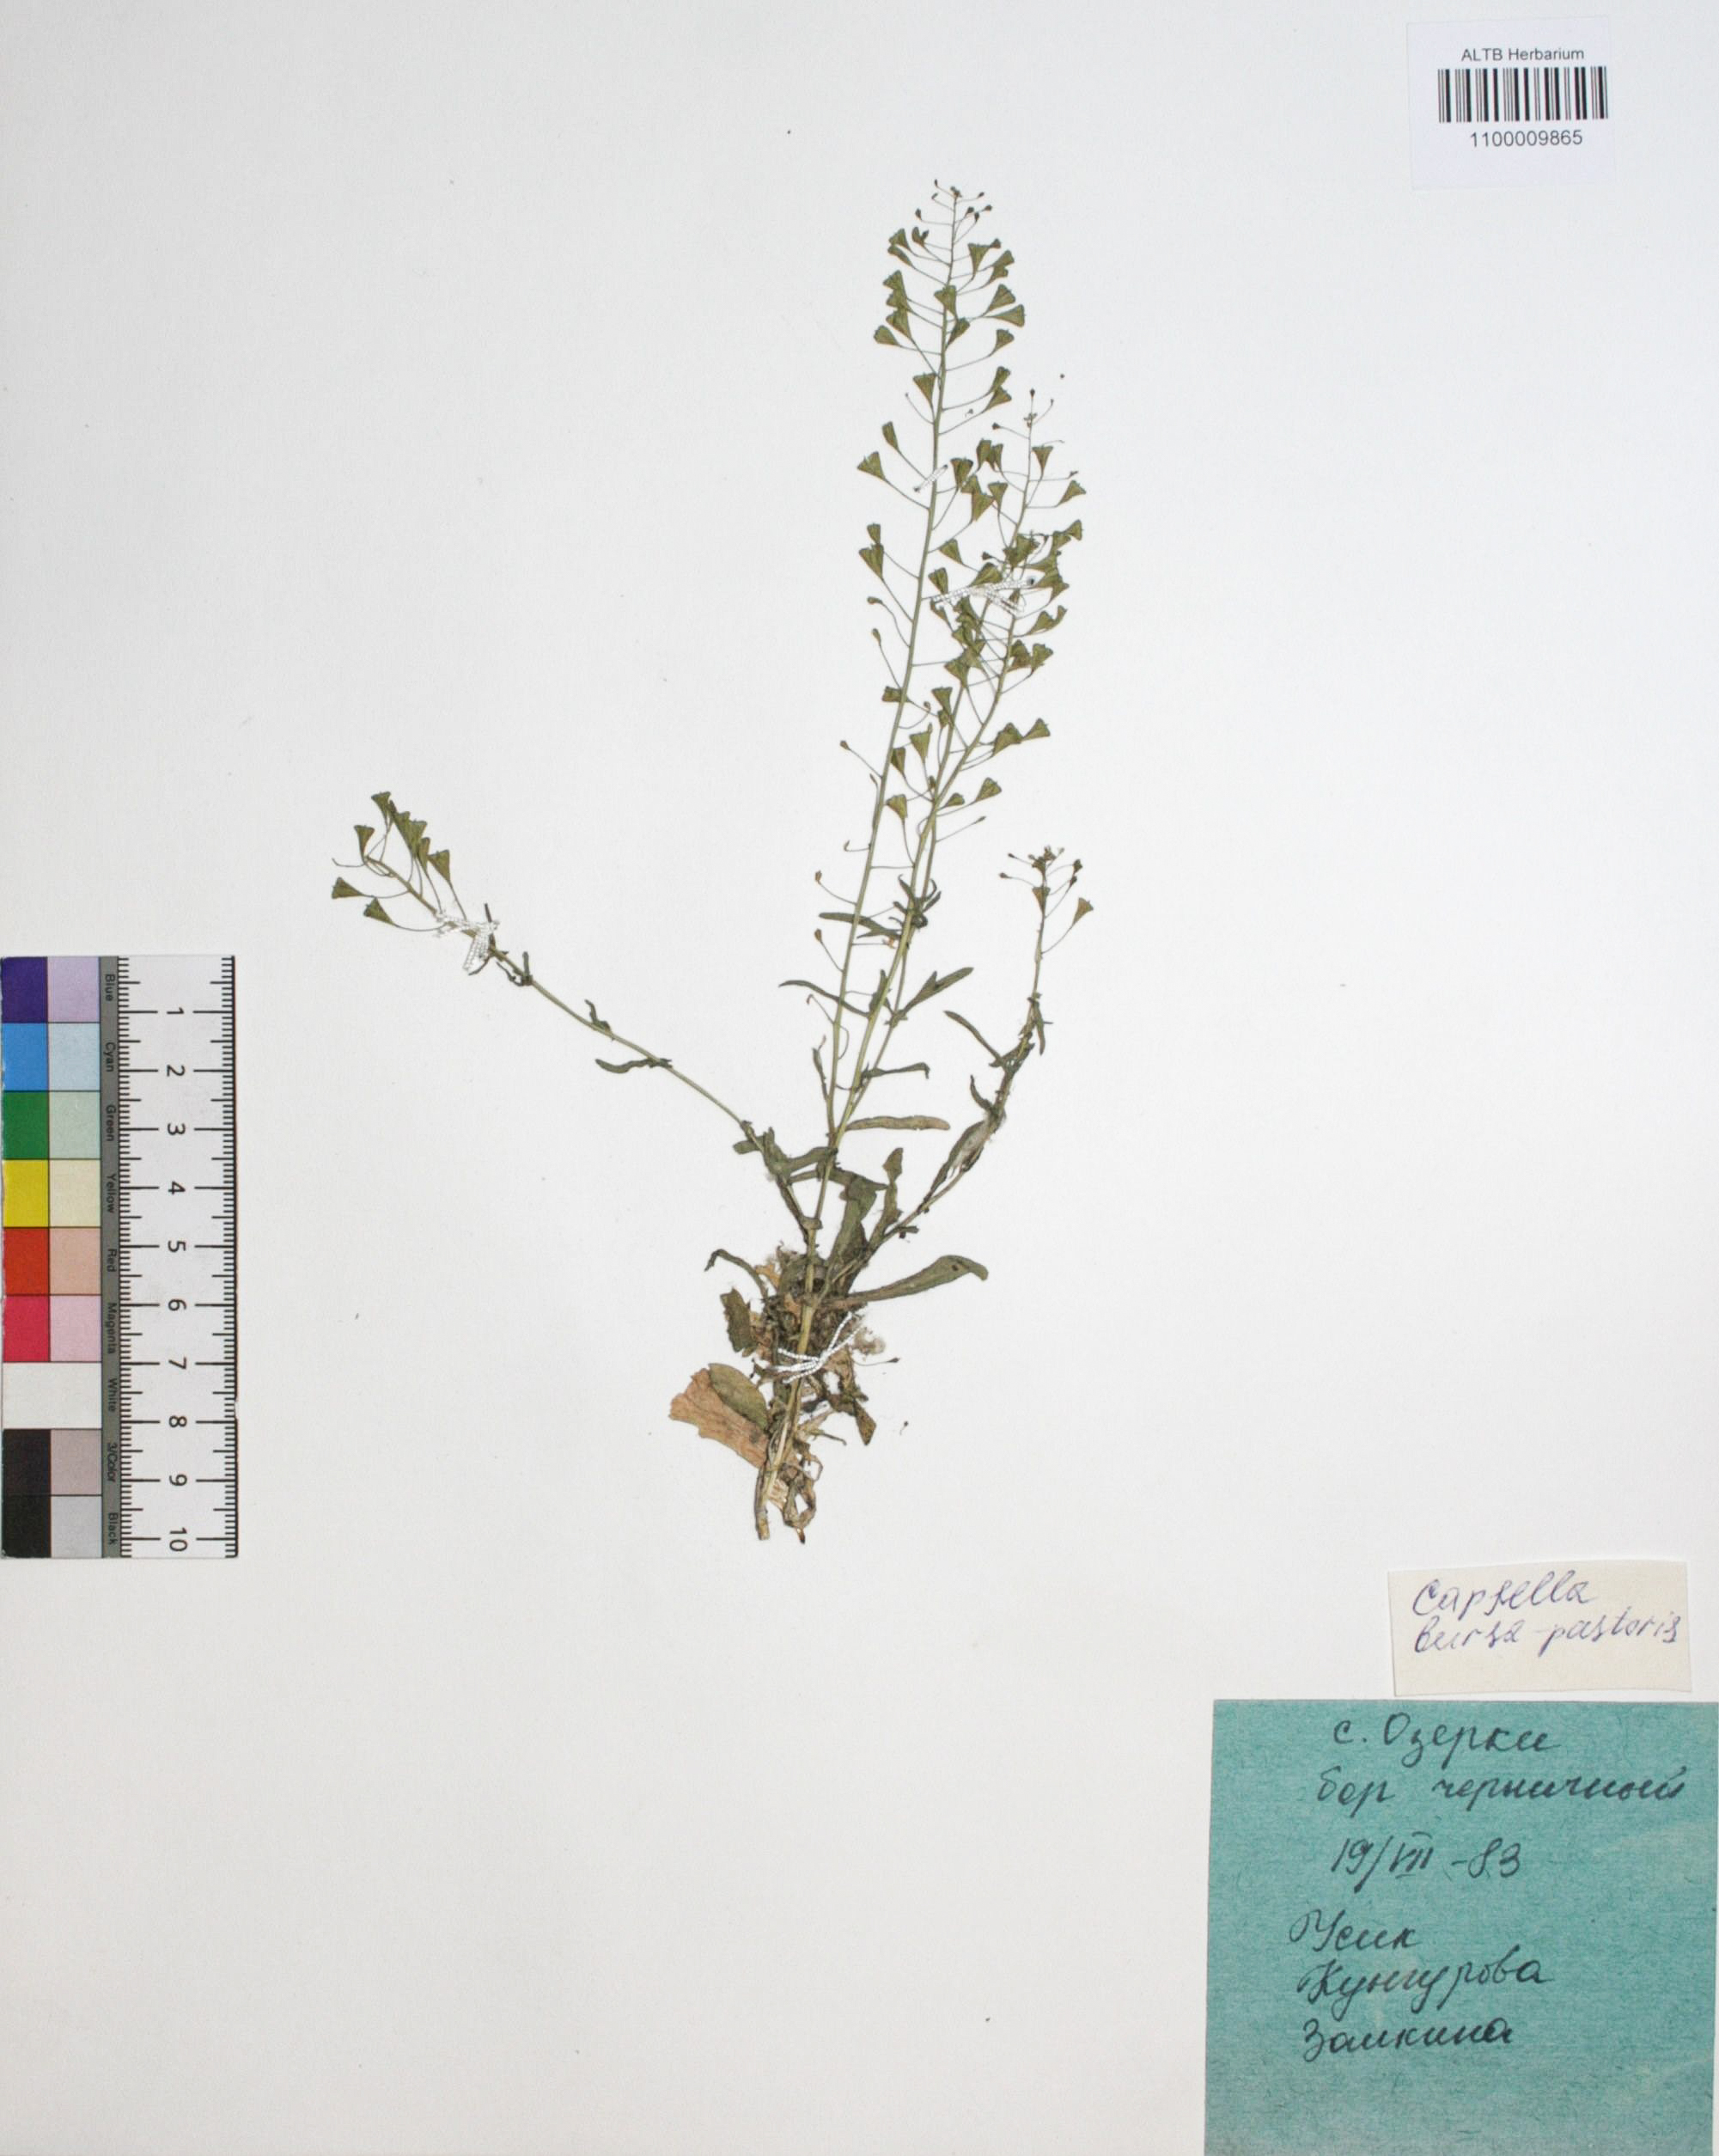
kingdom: Plantae
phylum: Tracheophyta
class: Magnoliopsida
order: Brassicales
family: Brassicaceae
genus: Capsella
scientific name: Capsella bursa-pastoris
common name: Shepherd's purse
